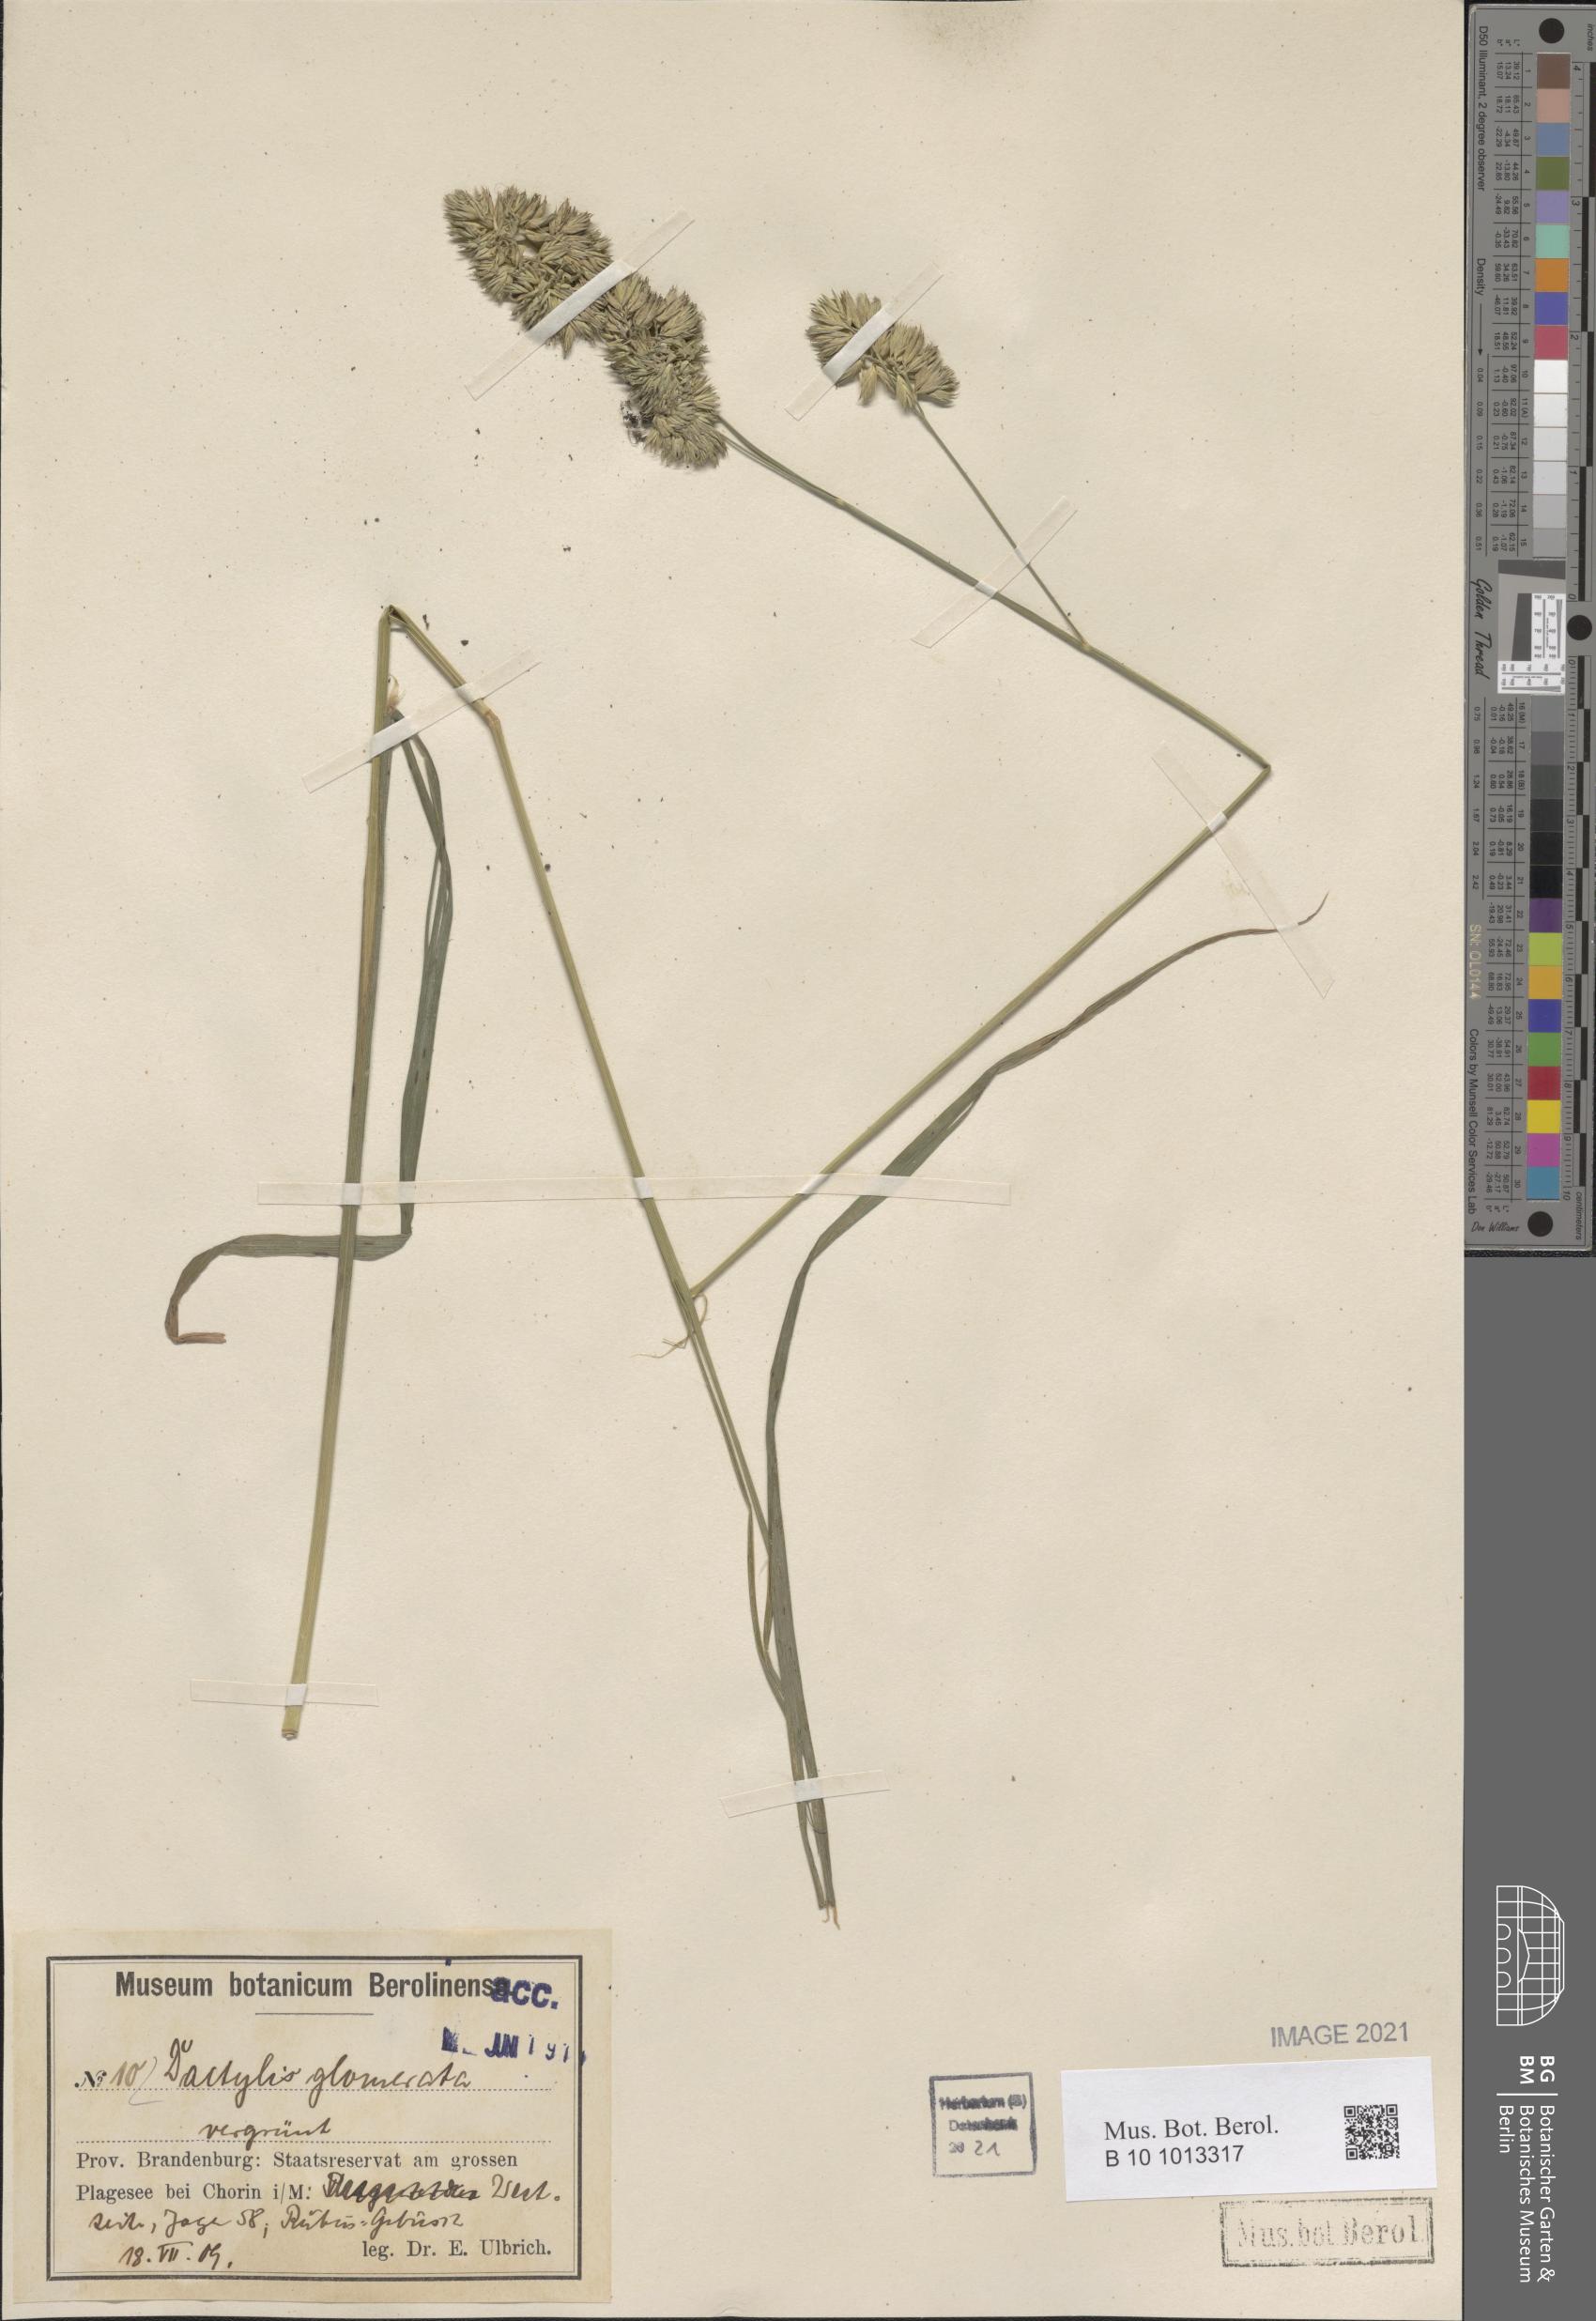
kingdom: Plantae
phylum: Tracheophyta
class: Liliopsida
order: Poales
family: Poaceae
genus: Dactylis
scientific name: Dactylis glomerata
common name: Orchardgrass
